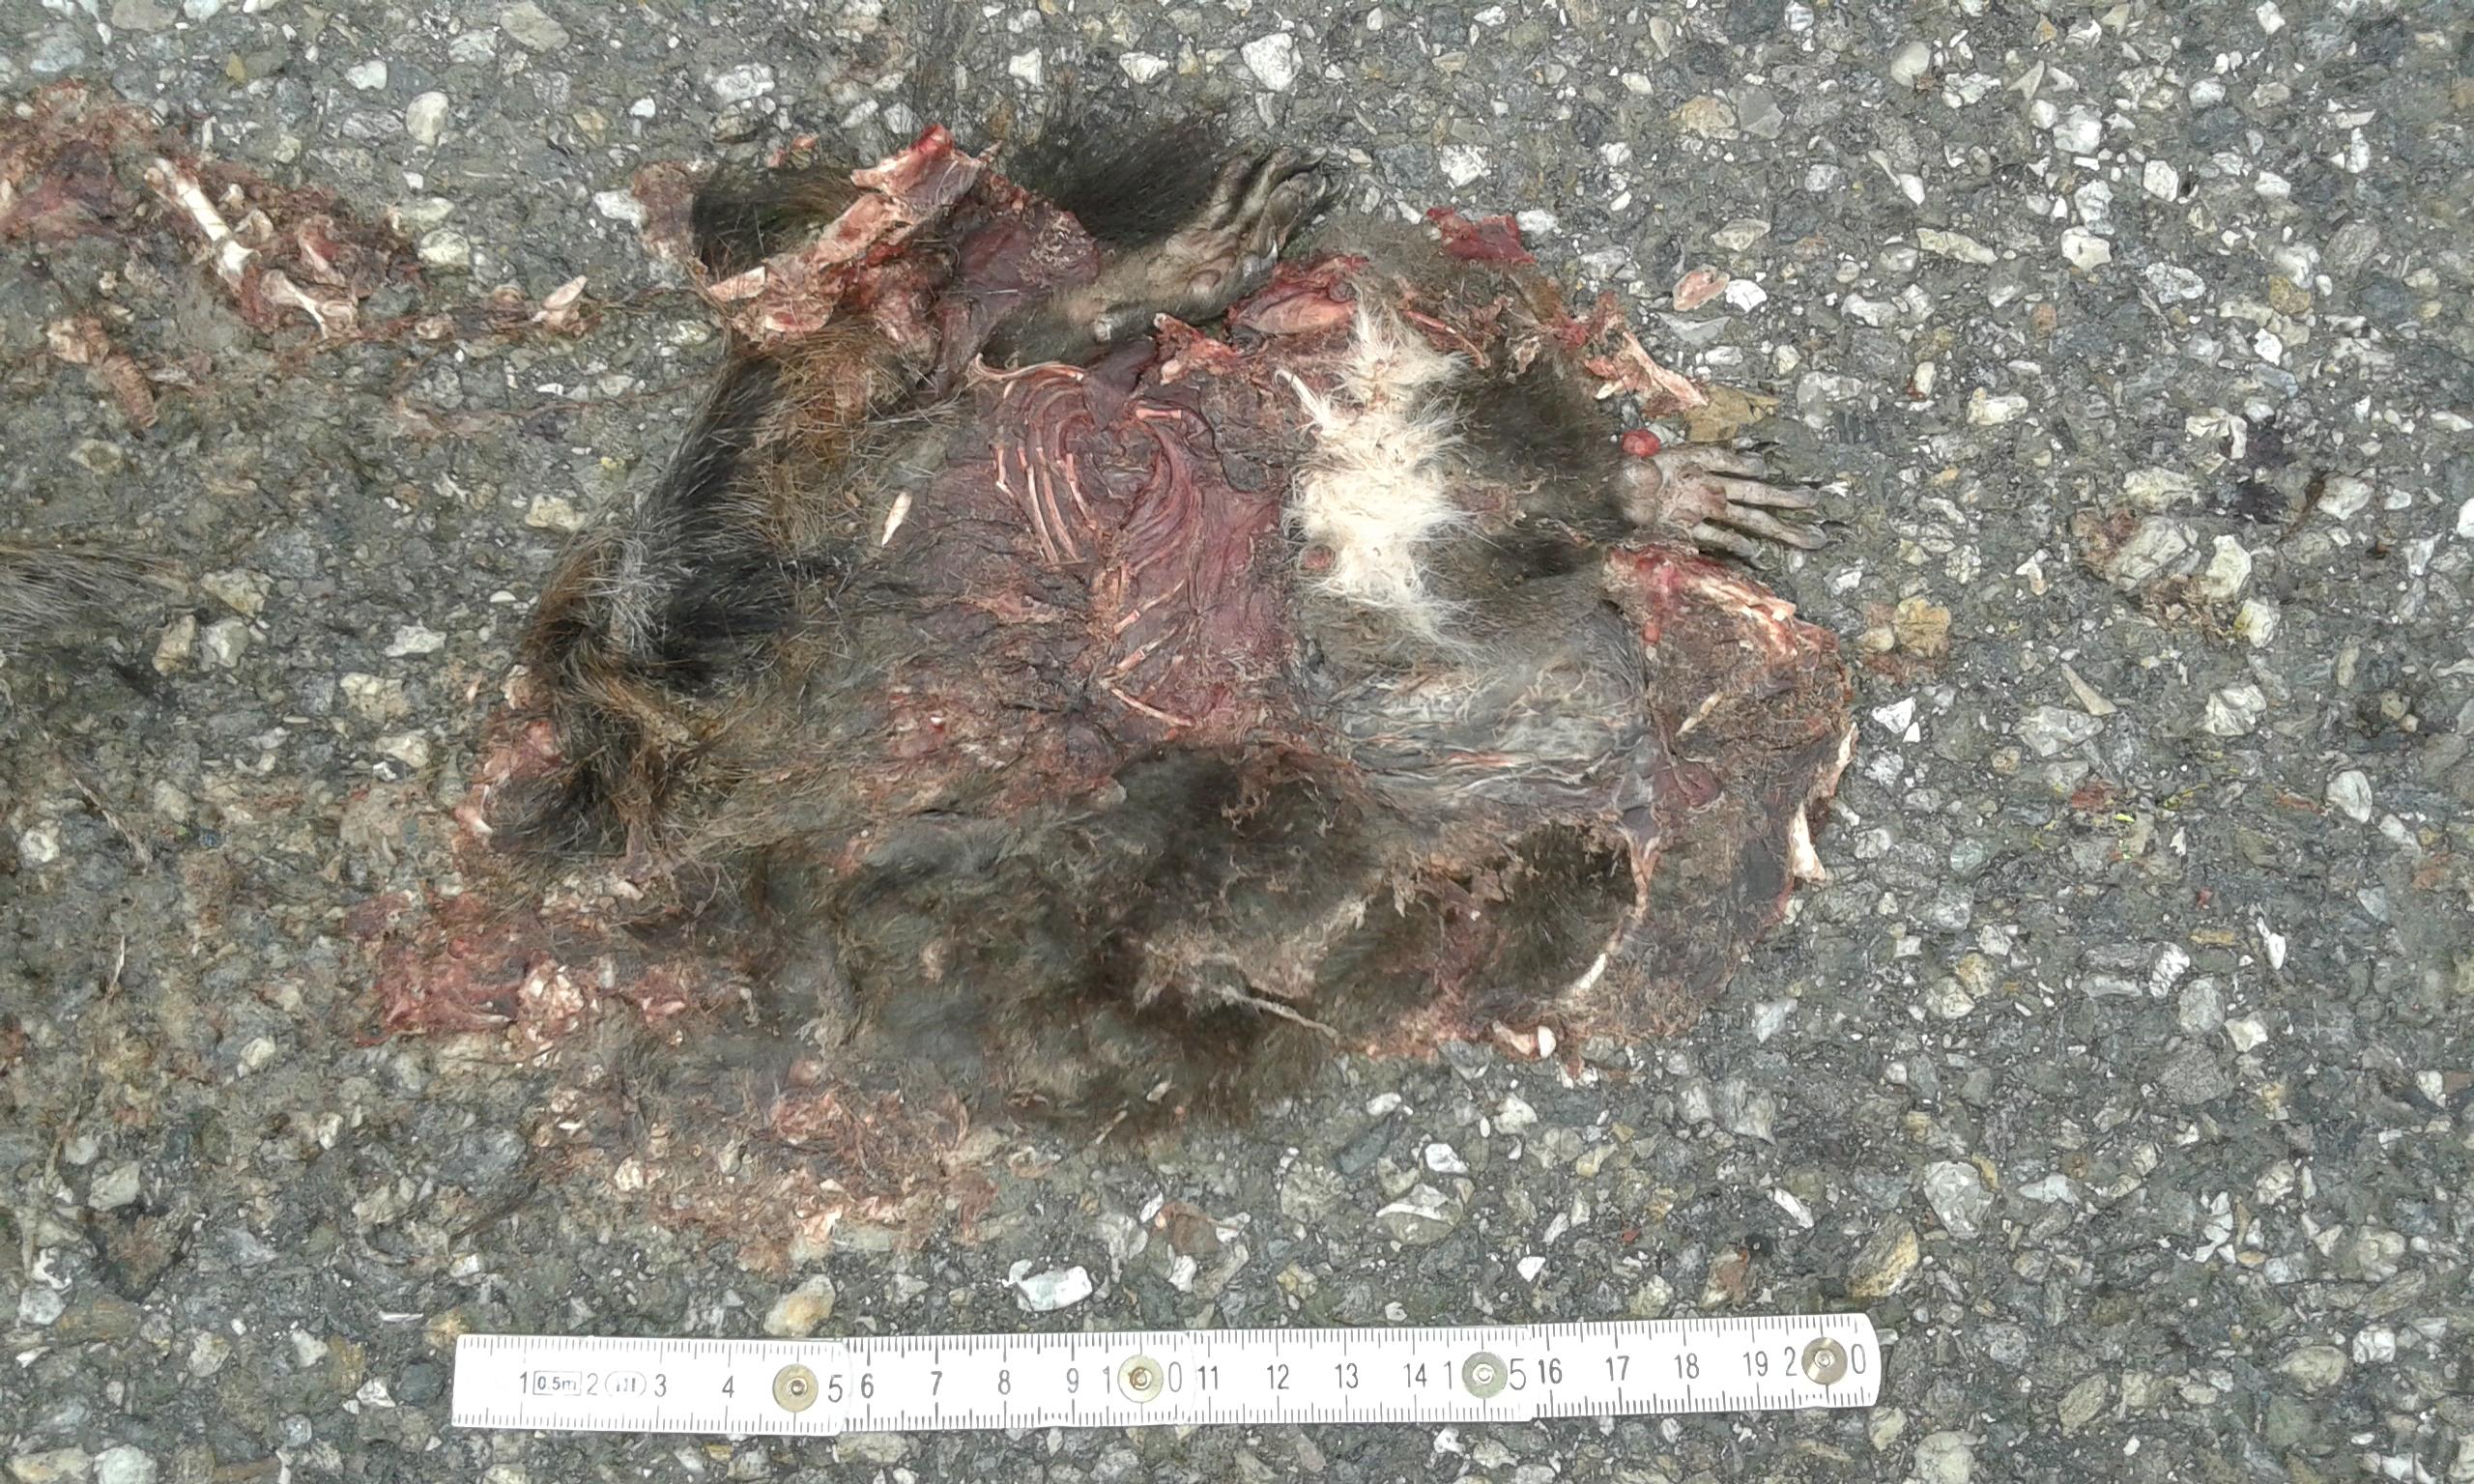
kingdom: Animalia
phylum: Chordata
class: Mammalia
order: Rodentia
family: Sciuridae
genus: Sciurus
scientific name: Sciurus vulgaris
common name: Eurasian red squirrel
